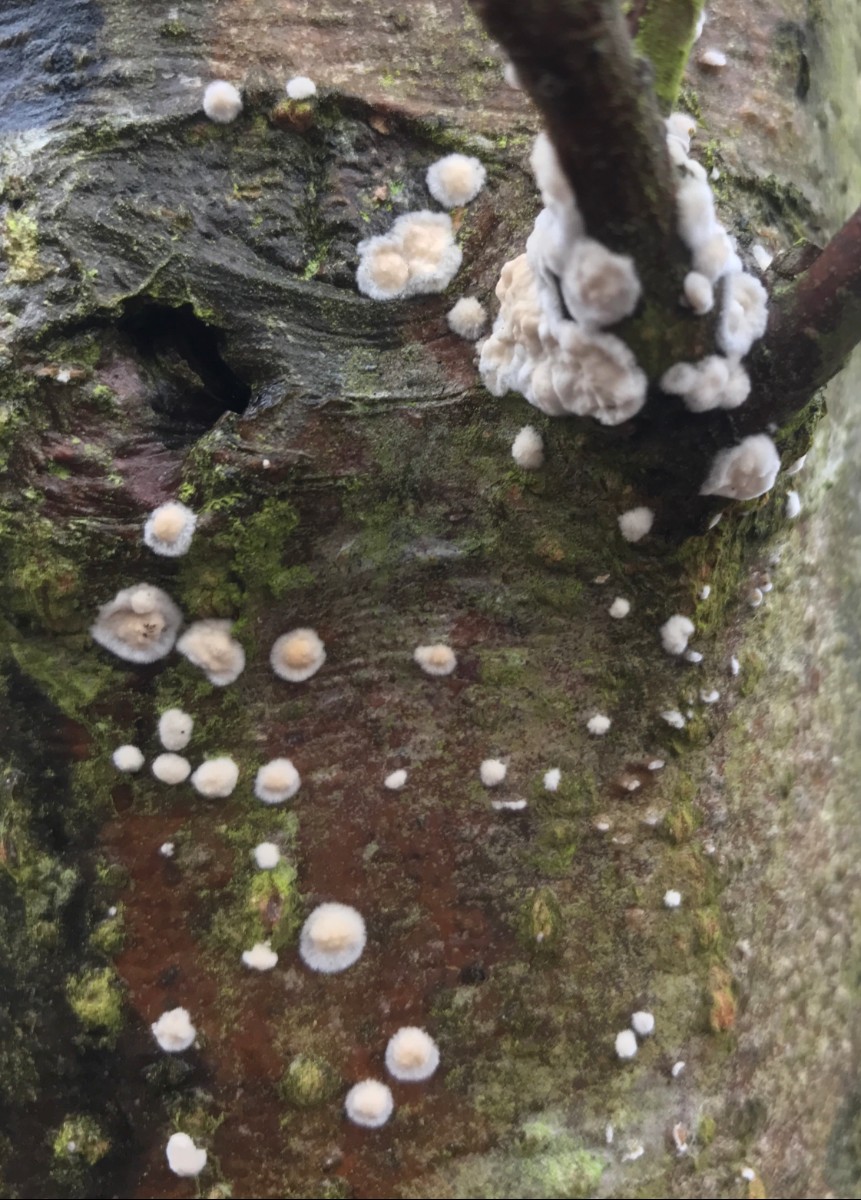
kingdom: Fungi
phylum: Basidiomycota
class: Agaricomycetes
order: Agaricales
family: Physalacriaceae
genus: Cylindrobasidium
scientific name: Cylindrobasidium evolvens
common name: sprækkehinde
